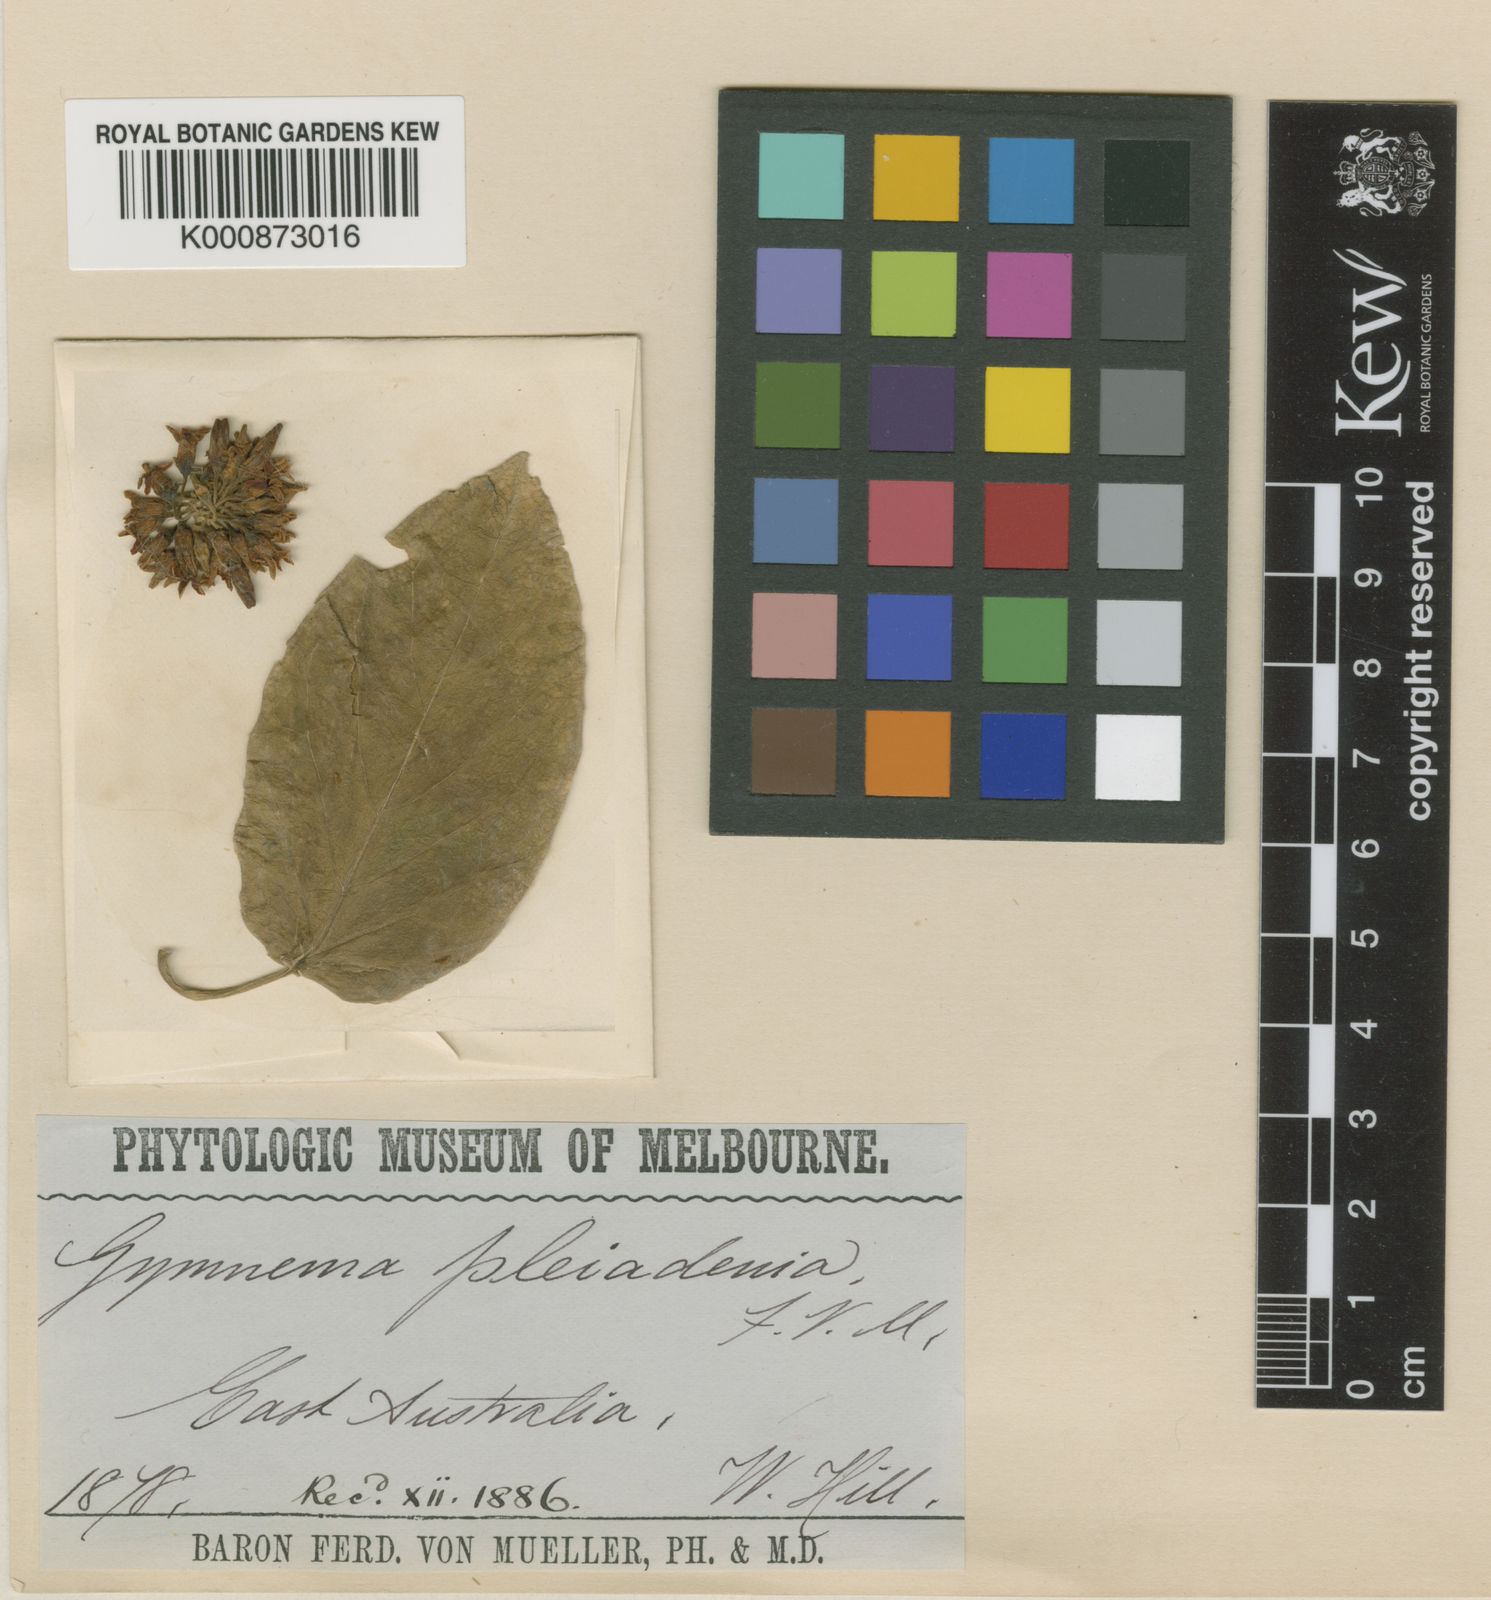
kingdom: Plantae
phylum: Tracheophyta
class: Magnoliopsida
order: Gentianales
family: Apocynaceae
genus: Gymnema
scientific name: Gymnema pleiadenium
